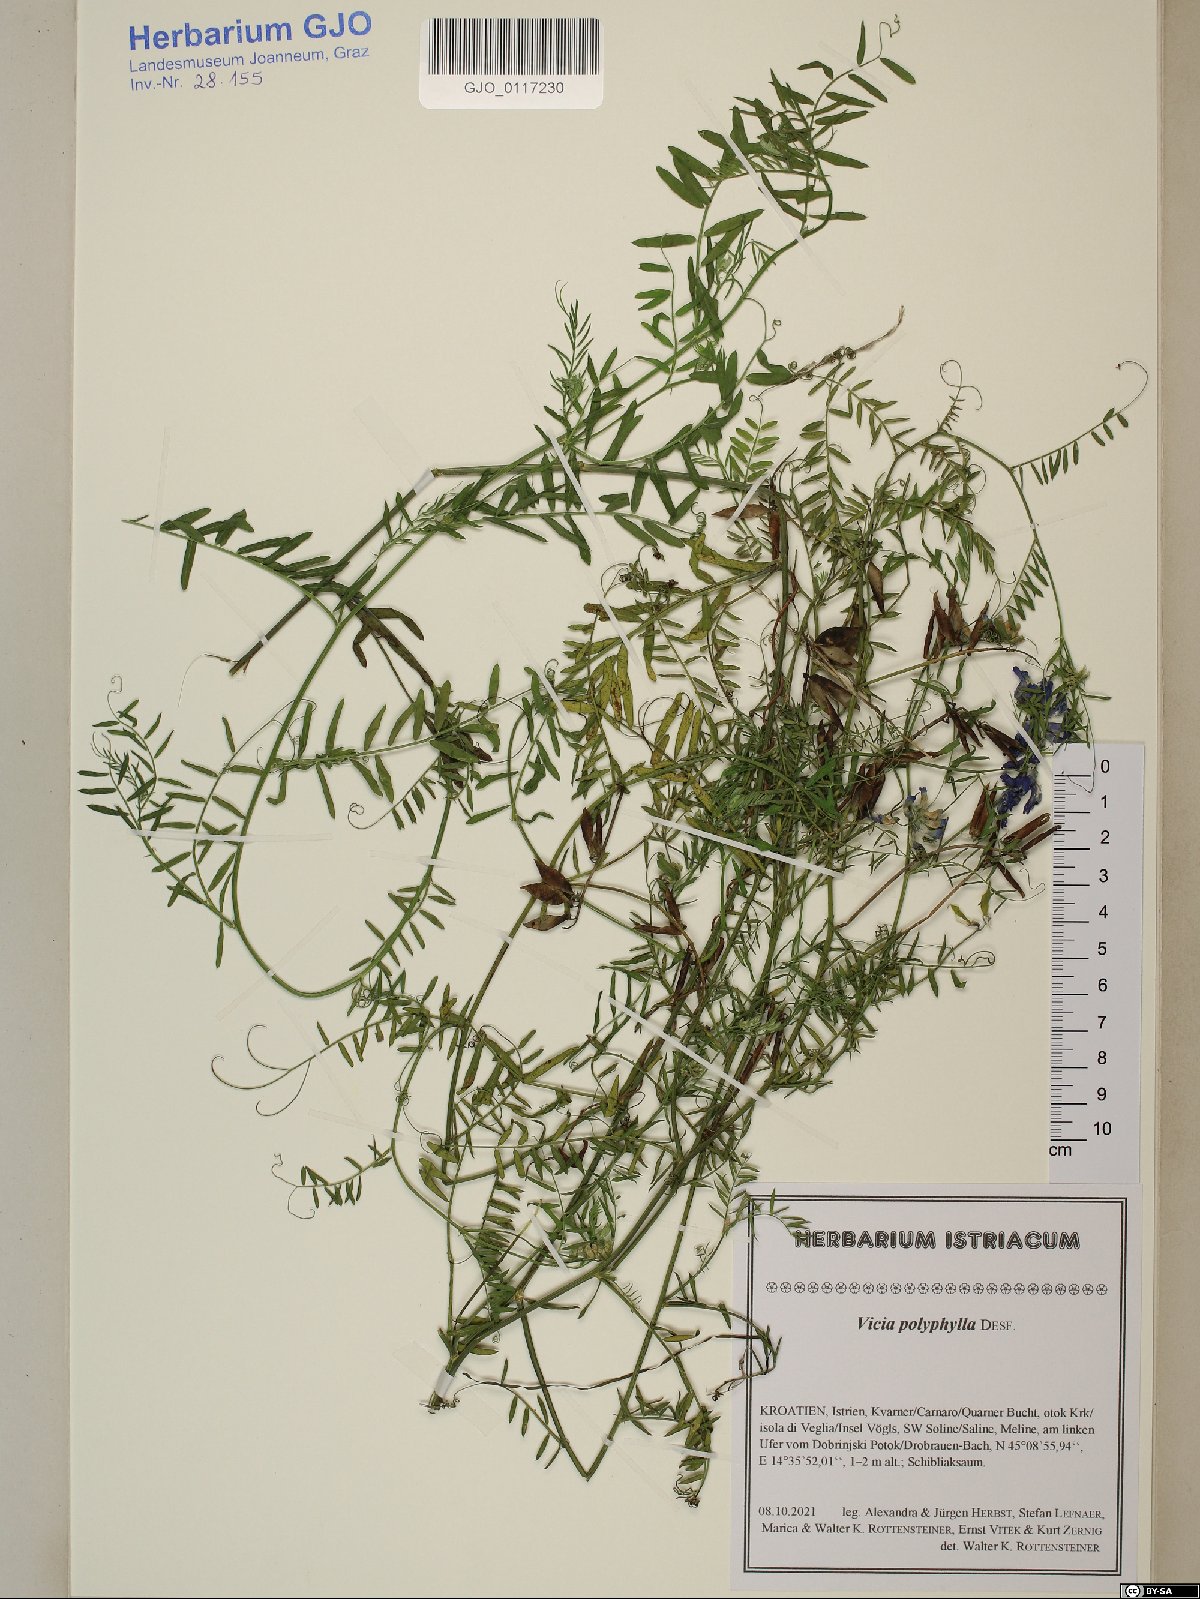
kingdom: Plantae
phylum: Tracheophyta
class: Magnoliopsida
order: Fabales
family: Fabaceae
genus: Vicia
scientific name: Vicia tenuifolia
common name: Fine-leaved vetch
